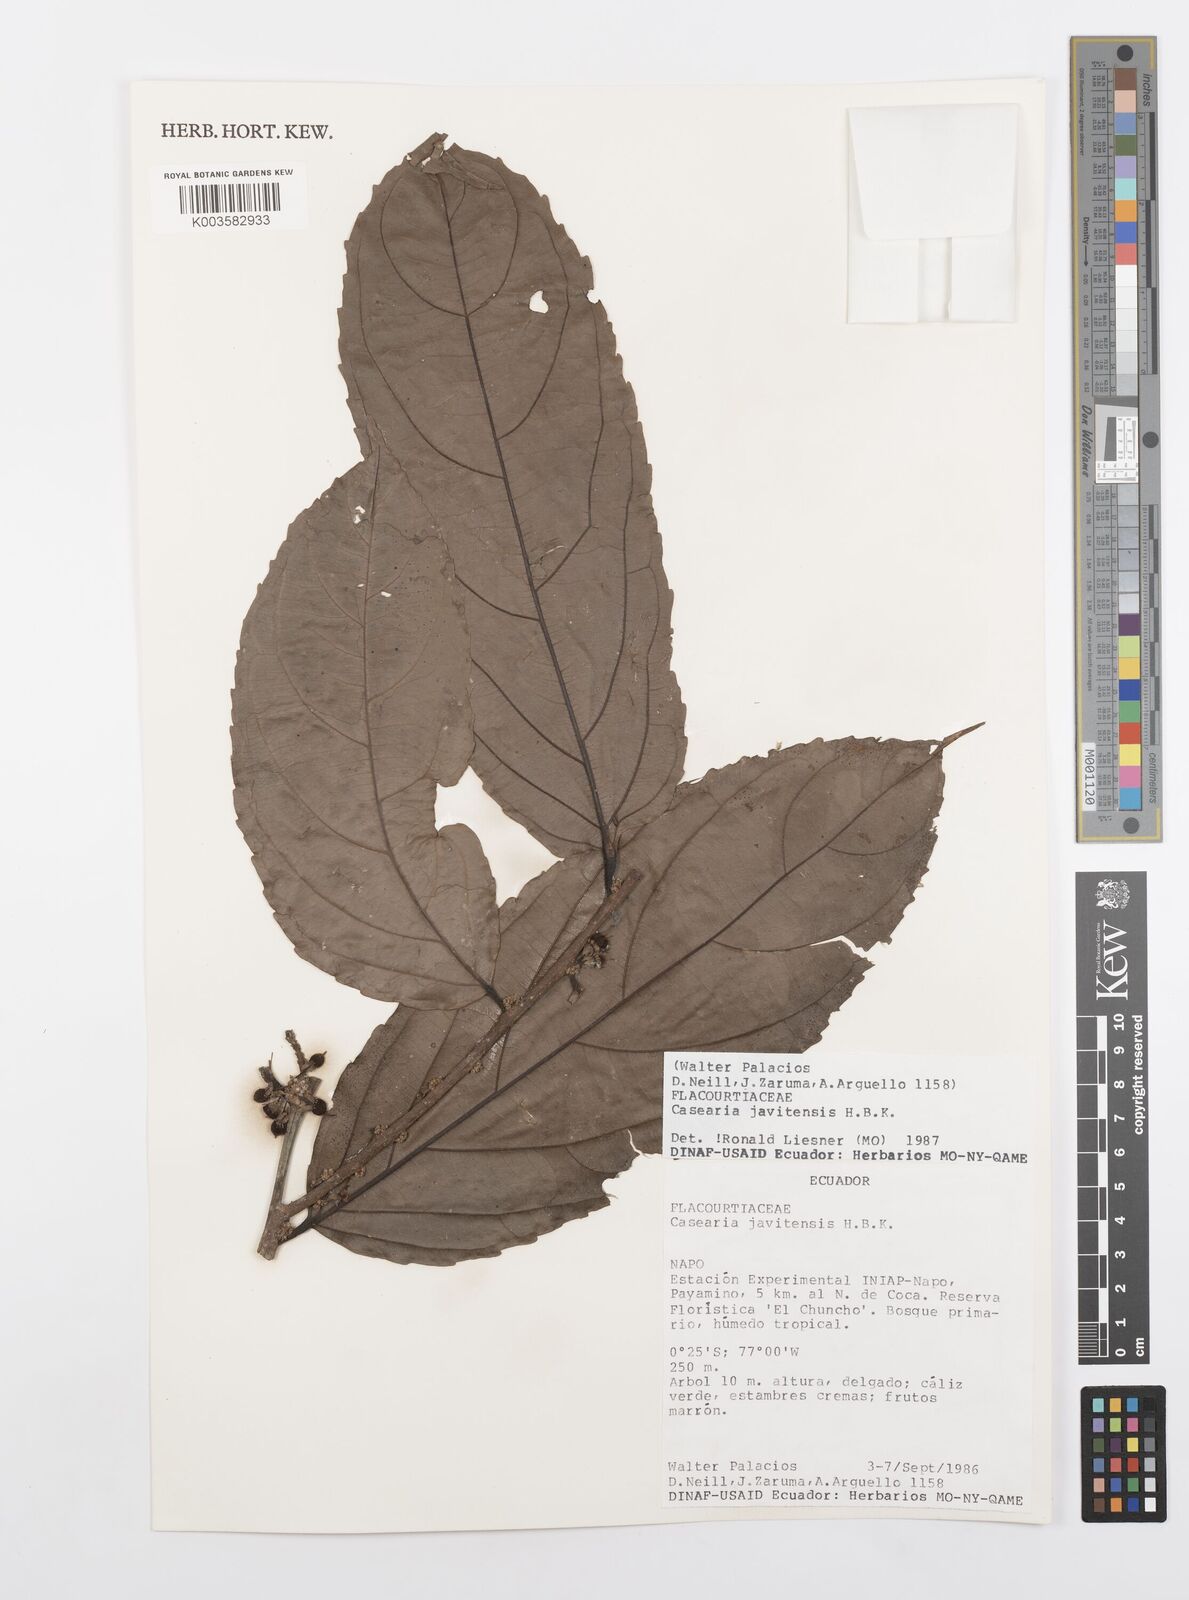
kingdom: Plantae
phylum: Tracheophyta
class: Magnoliopsida
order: Malpighiales
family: Salicaceae
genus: Piparea
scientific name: Piparea multiflora
